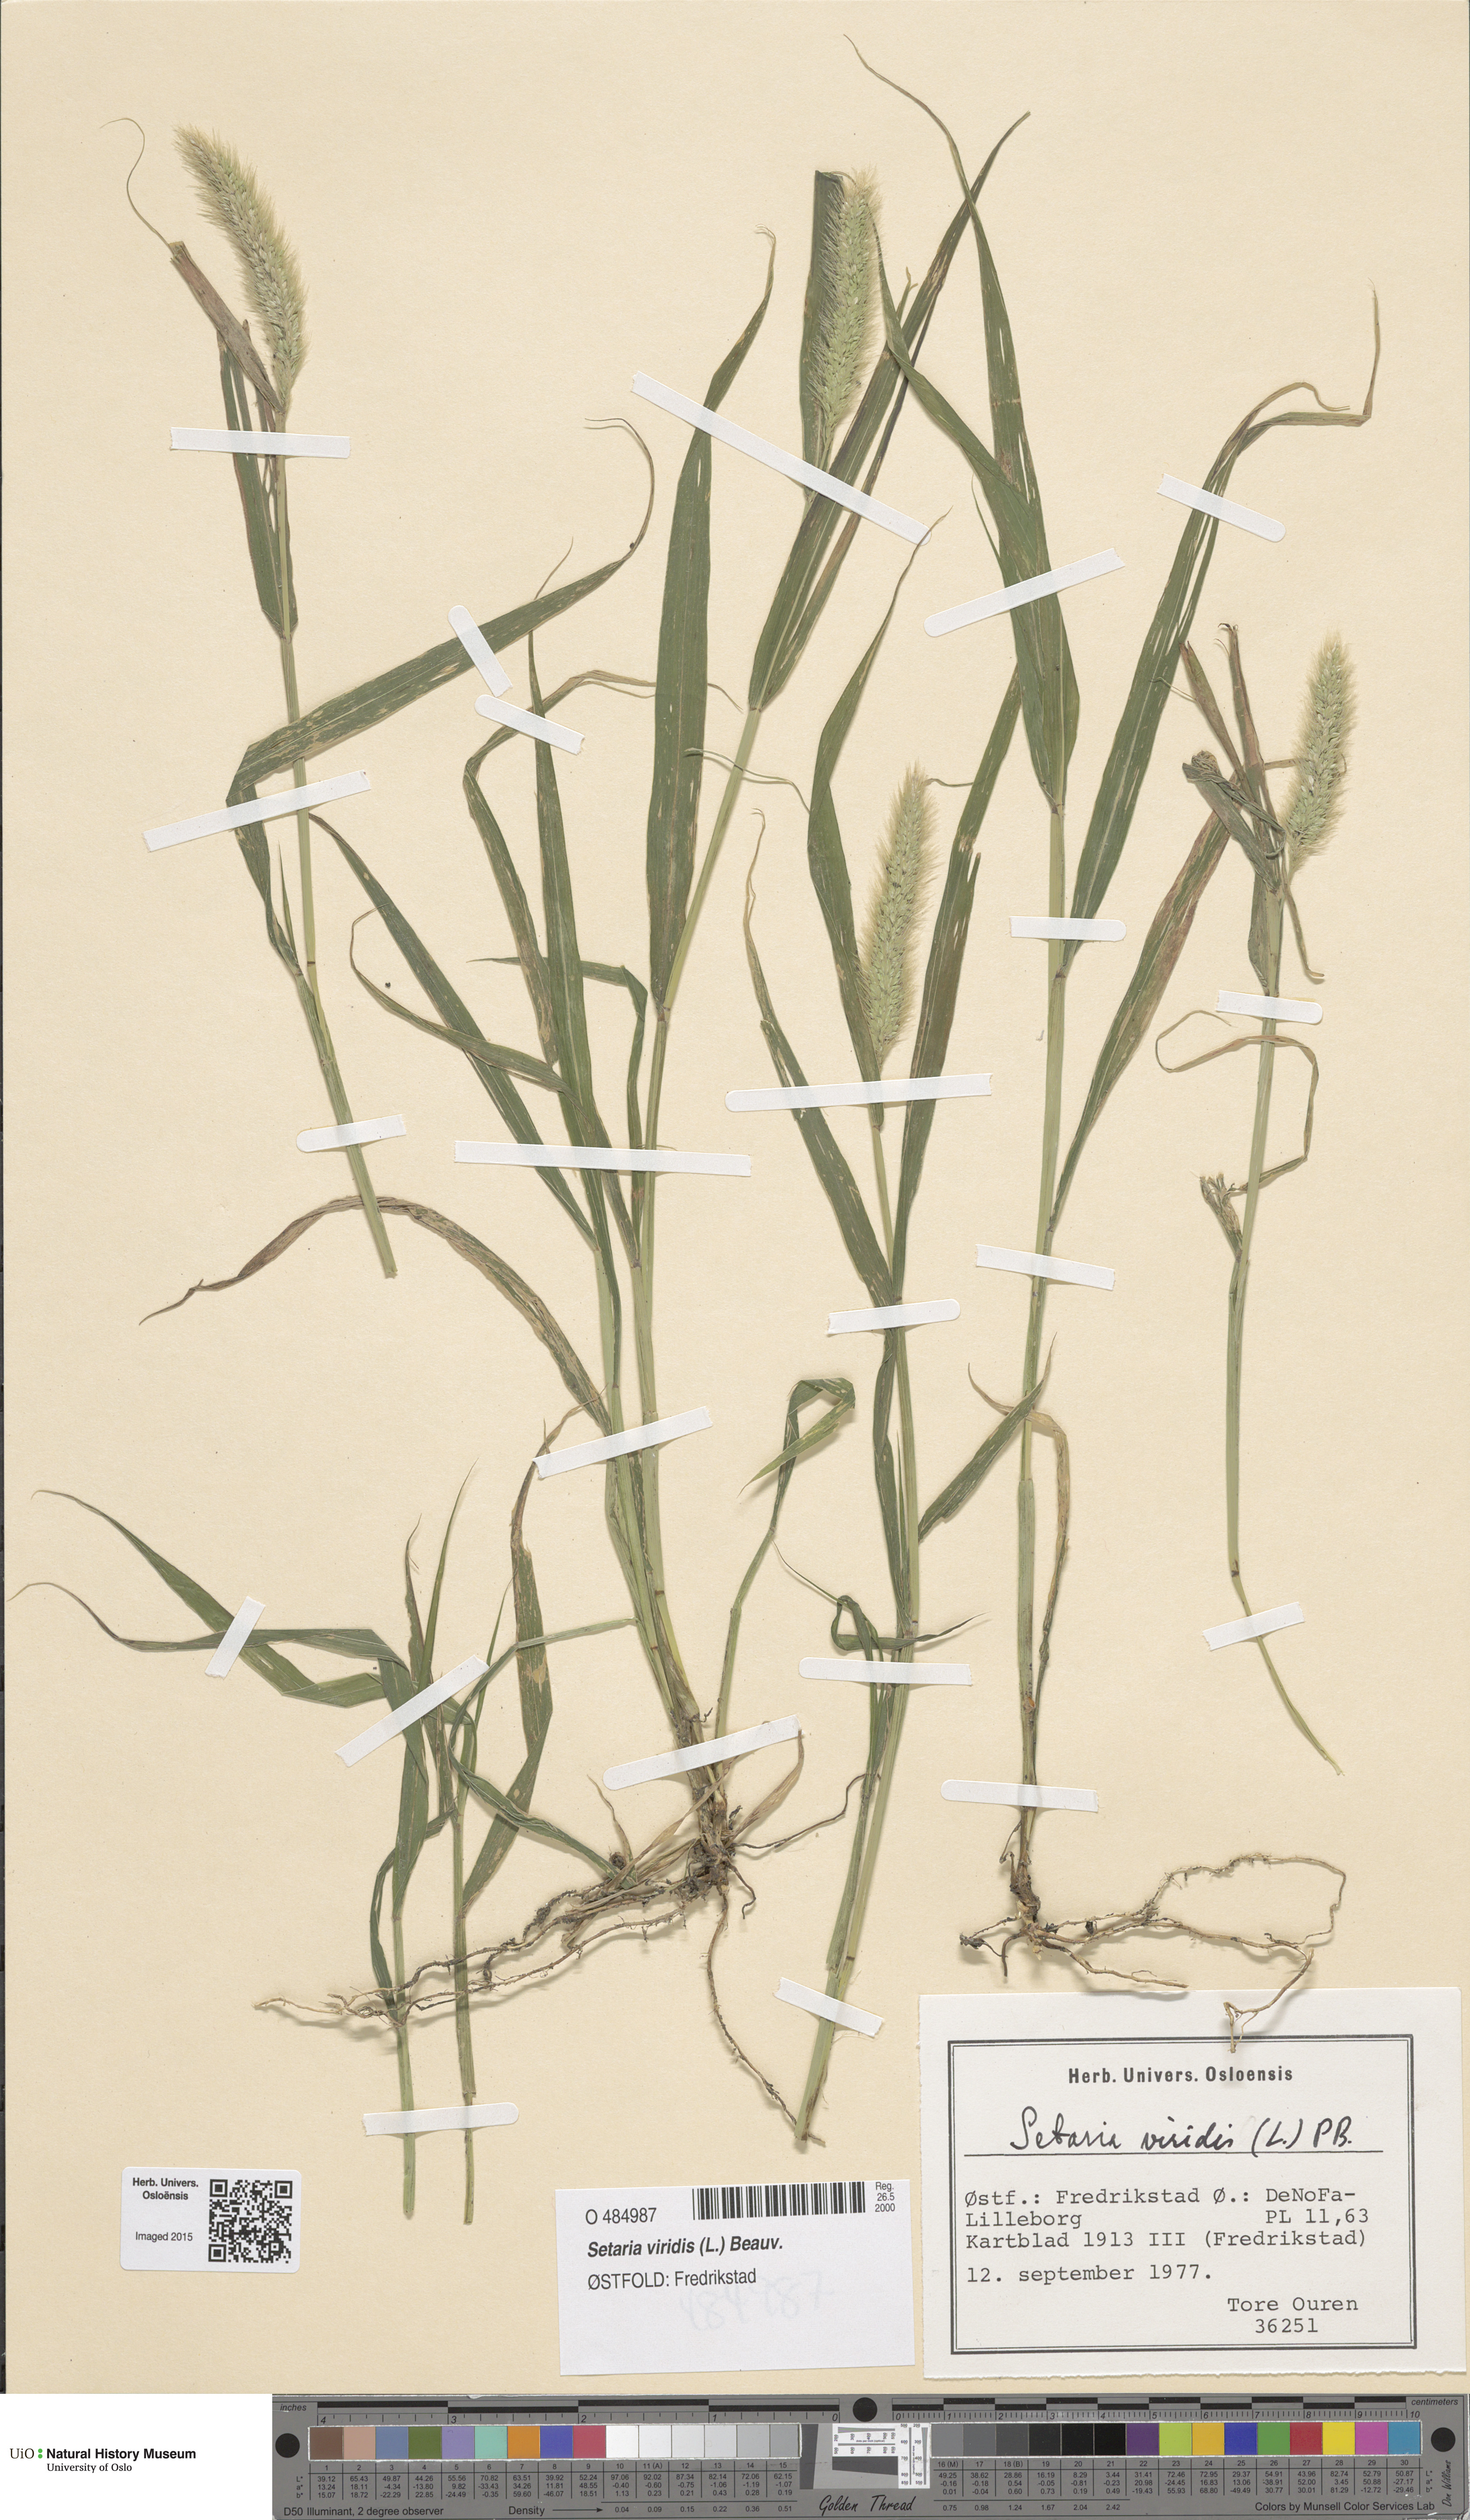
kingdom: Plantae
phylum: Tracheophyta
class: Liliopsida
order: Poales
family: Poaceae
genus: Setaria
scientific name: Setaria viridis
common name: Green bristlegrass
